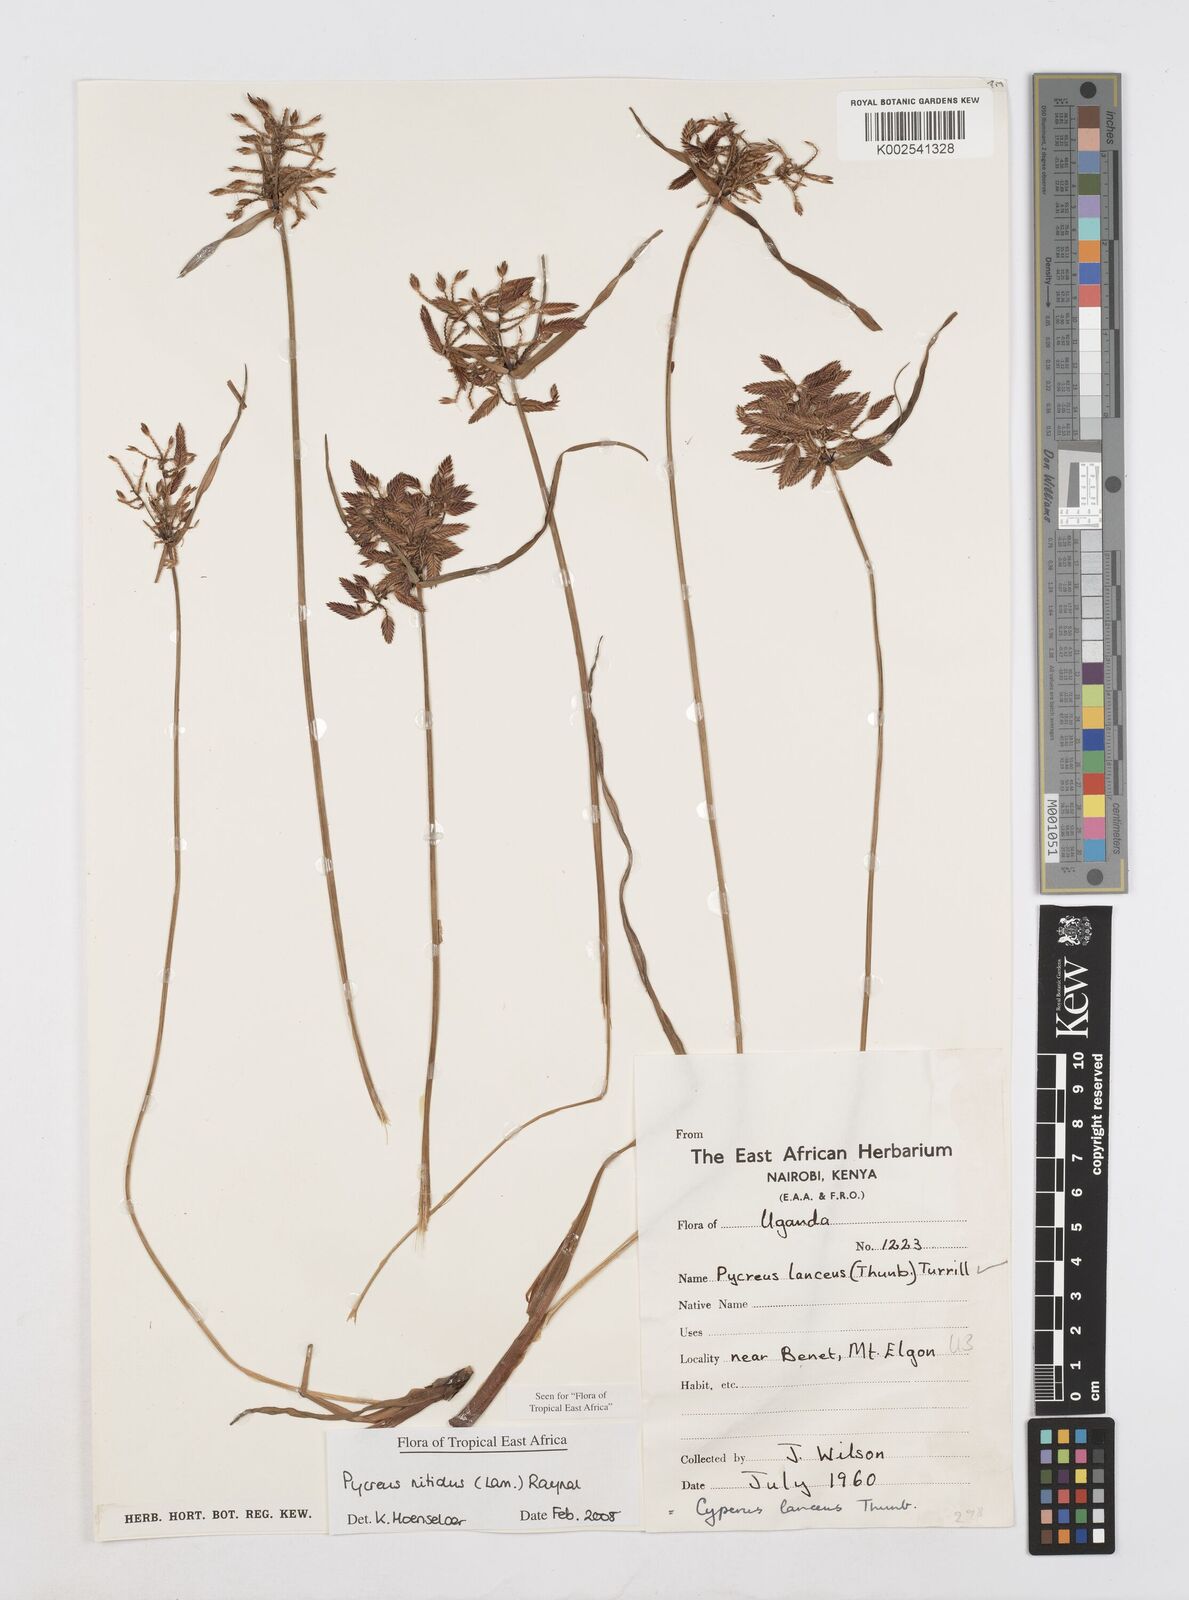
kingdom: Plantae
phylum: Tracheophyta
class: Liliopsida
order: Poales
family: Cyperaceae
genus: Cyperus
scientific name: Cyperus nitidus
